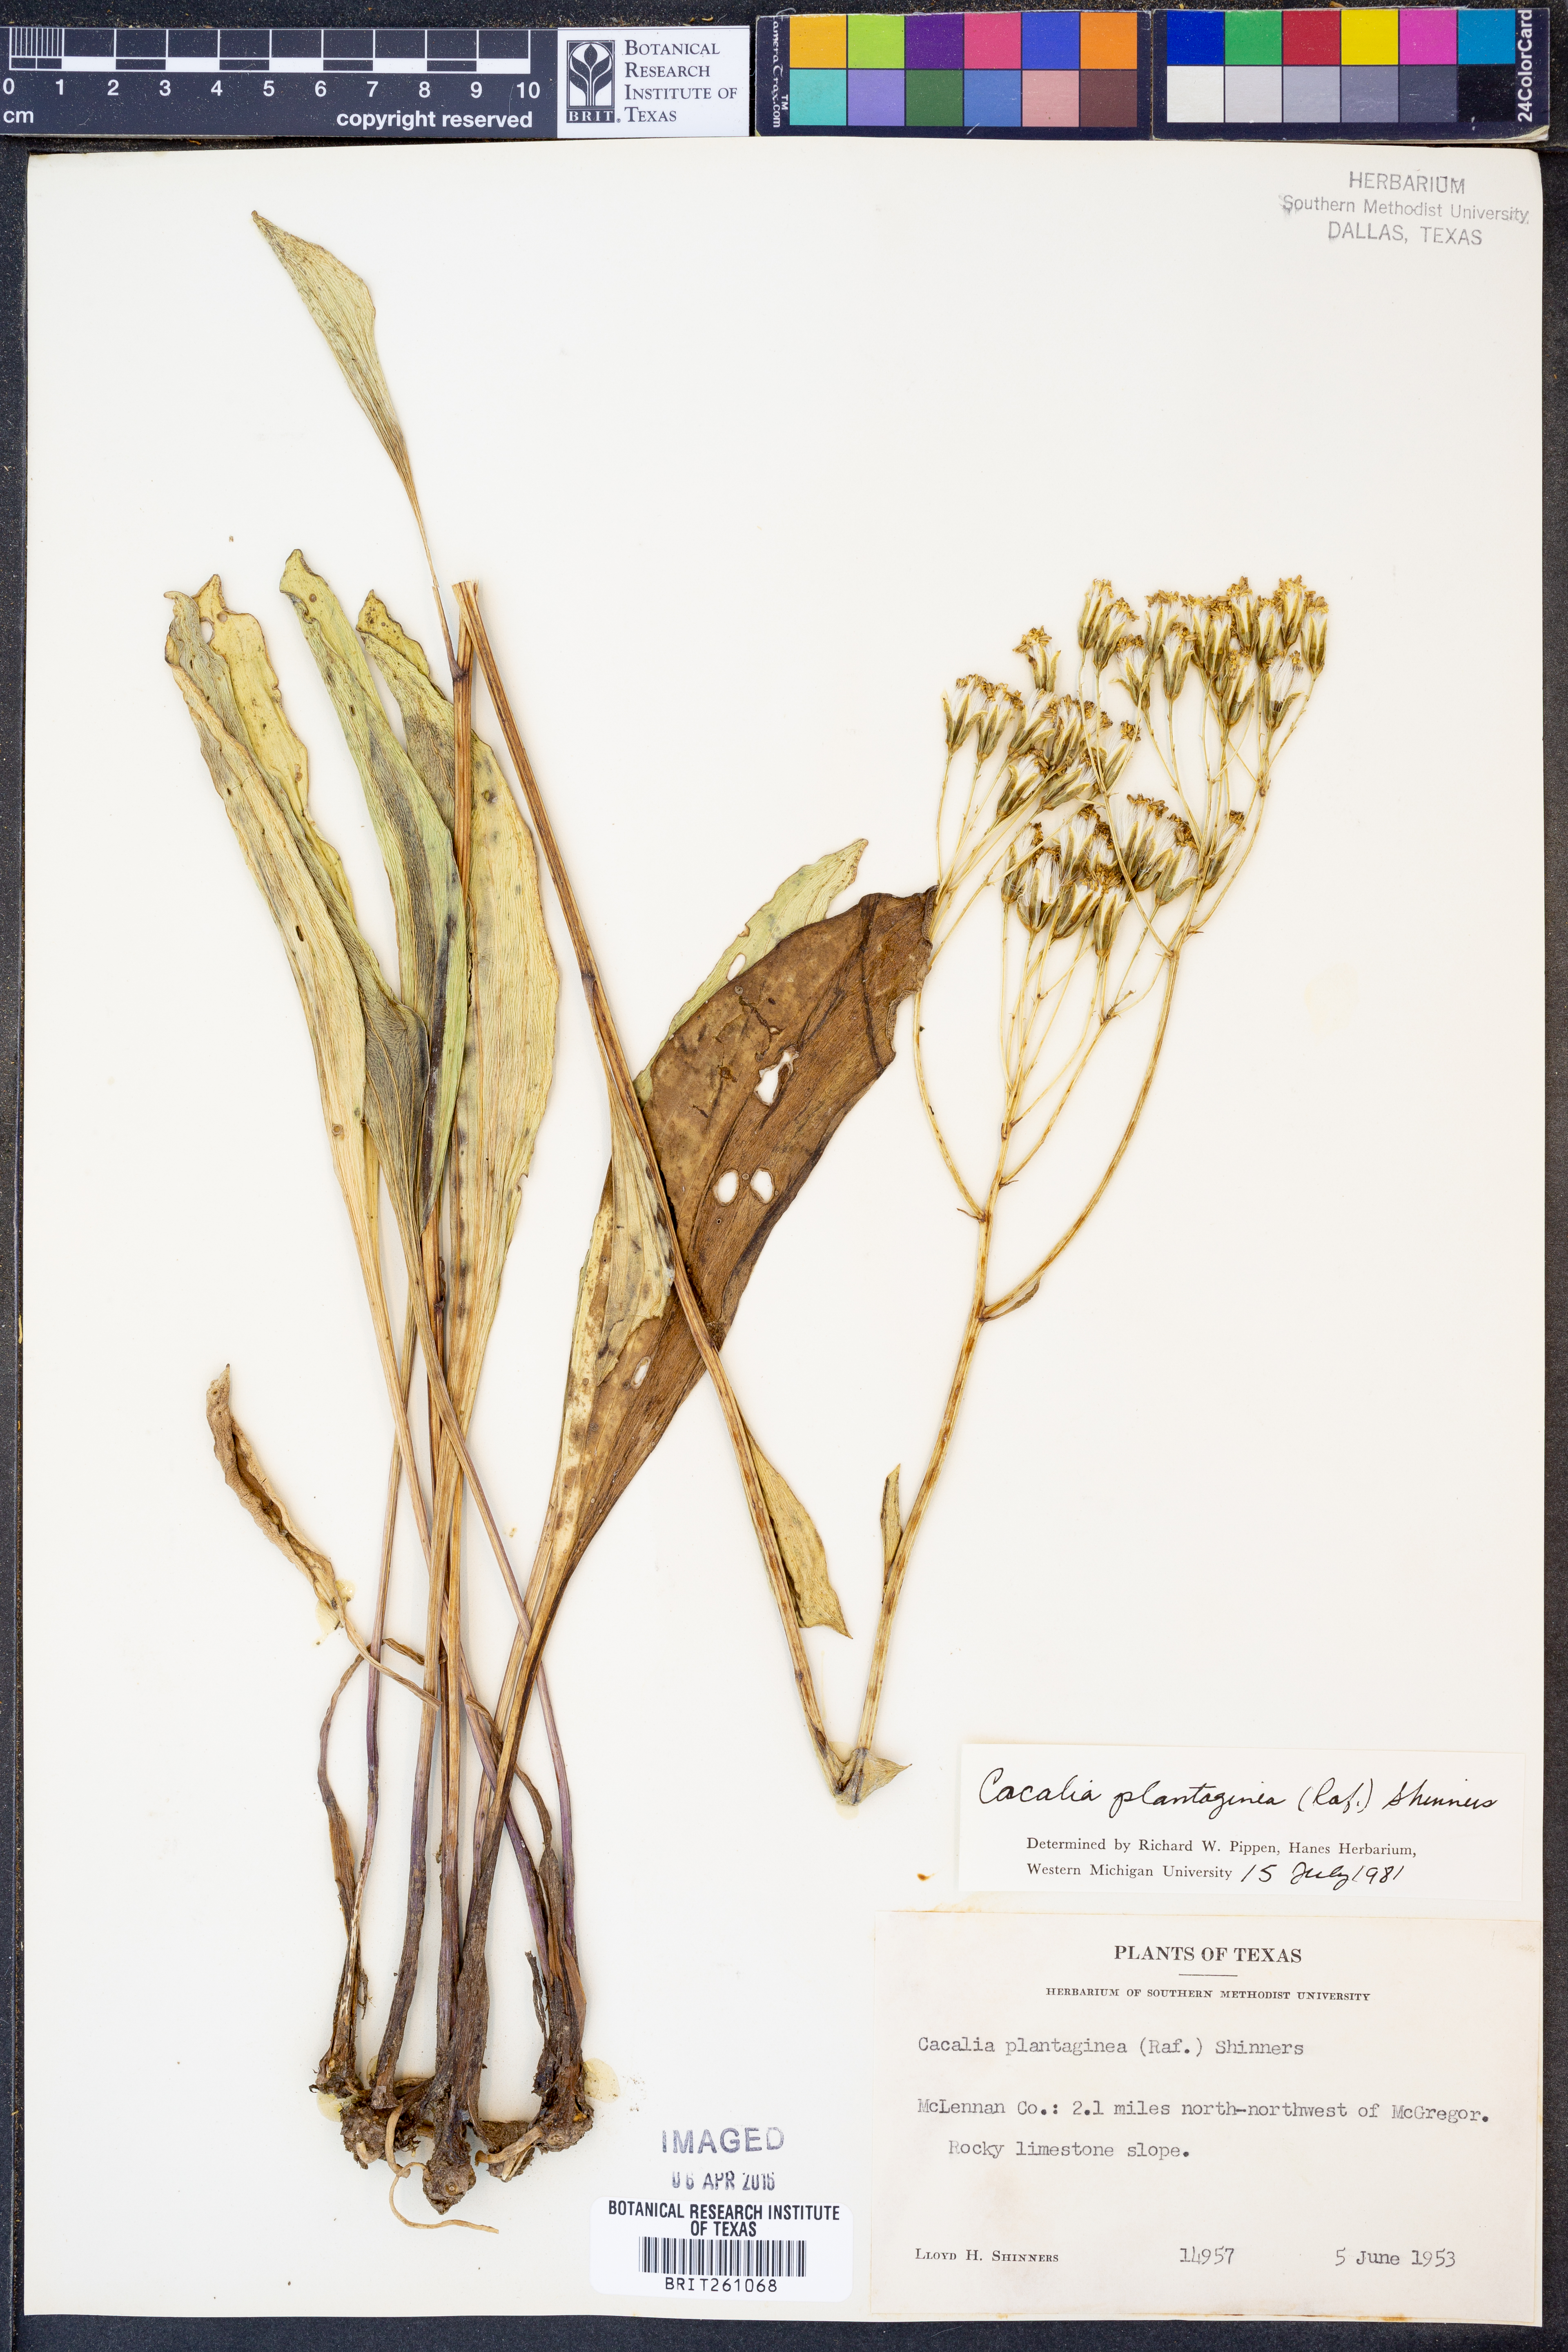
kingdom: Plantae
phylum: Tracheophyta
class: Magnoliopsida
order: Asterales
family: Asteraceae
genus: Arnoglossum
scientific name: Arnoglossum plantagineum
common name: Groove-stemmed indian-plantain
